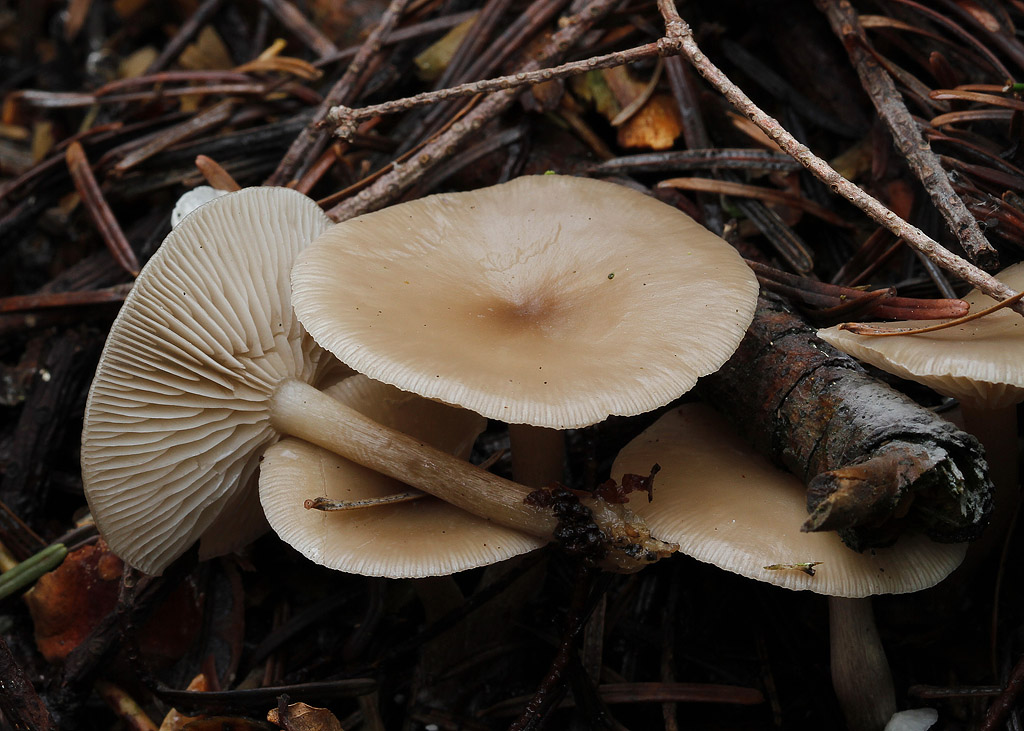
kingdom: Fungi
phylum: Basidiomycota
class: Agaricomycetes
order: Agaricales
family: Tricholomataceae
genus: Clitocybe
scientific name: Clitocybe vibecina
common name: randstribet tragthat
